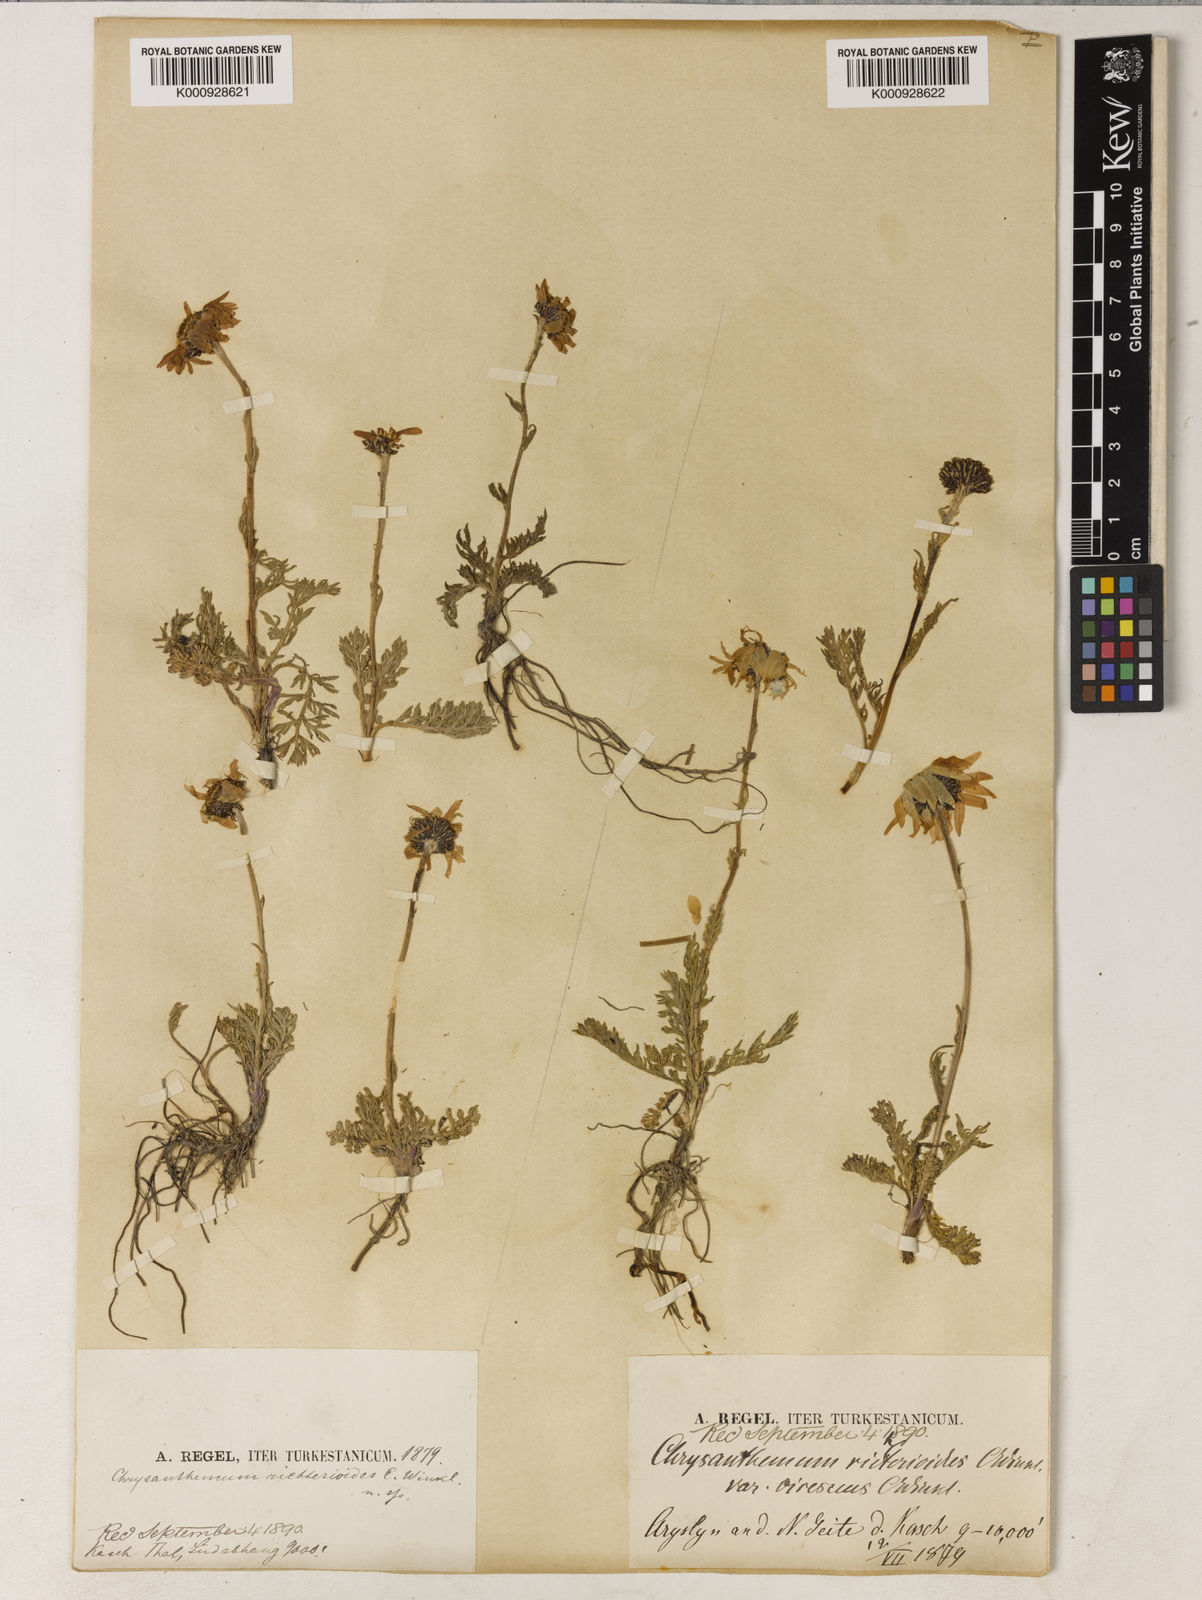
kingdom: Plantae
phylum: Tracheophyta
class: Magnoliopsida
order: Asterales
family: Asteraceae
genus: Tanacetum
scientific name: Tanacetum karelinii
